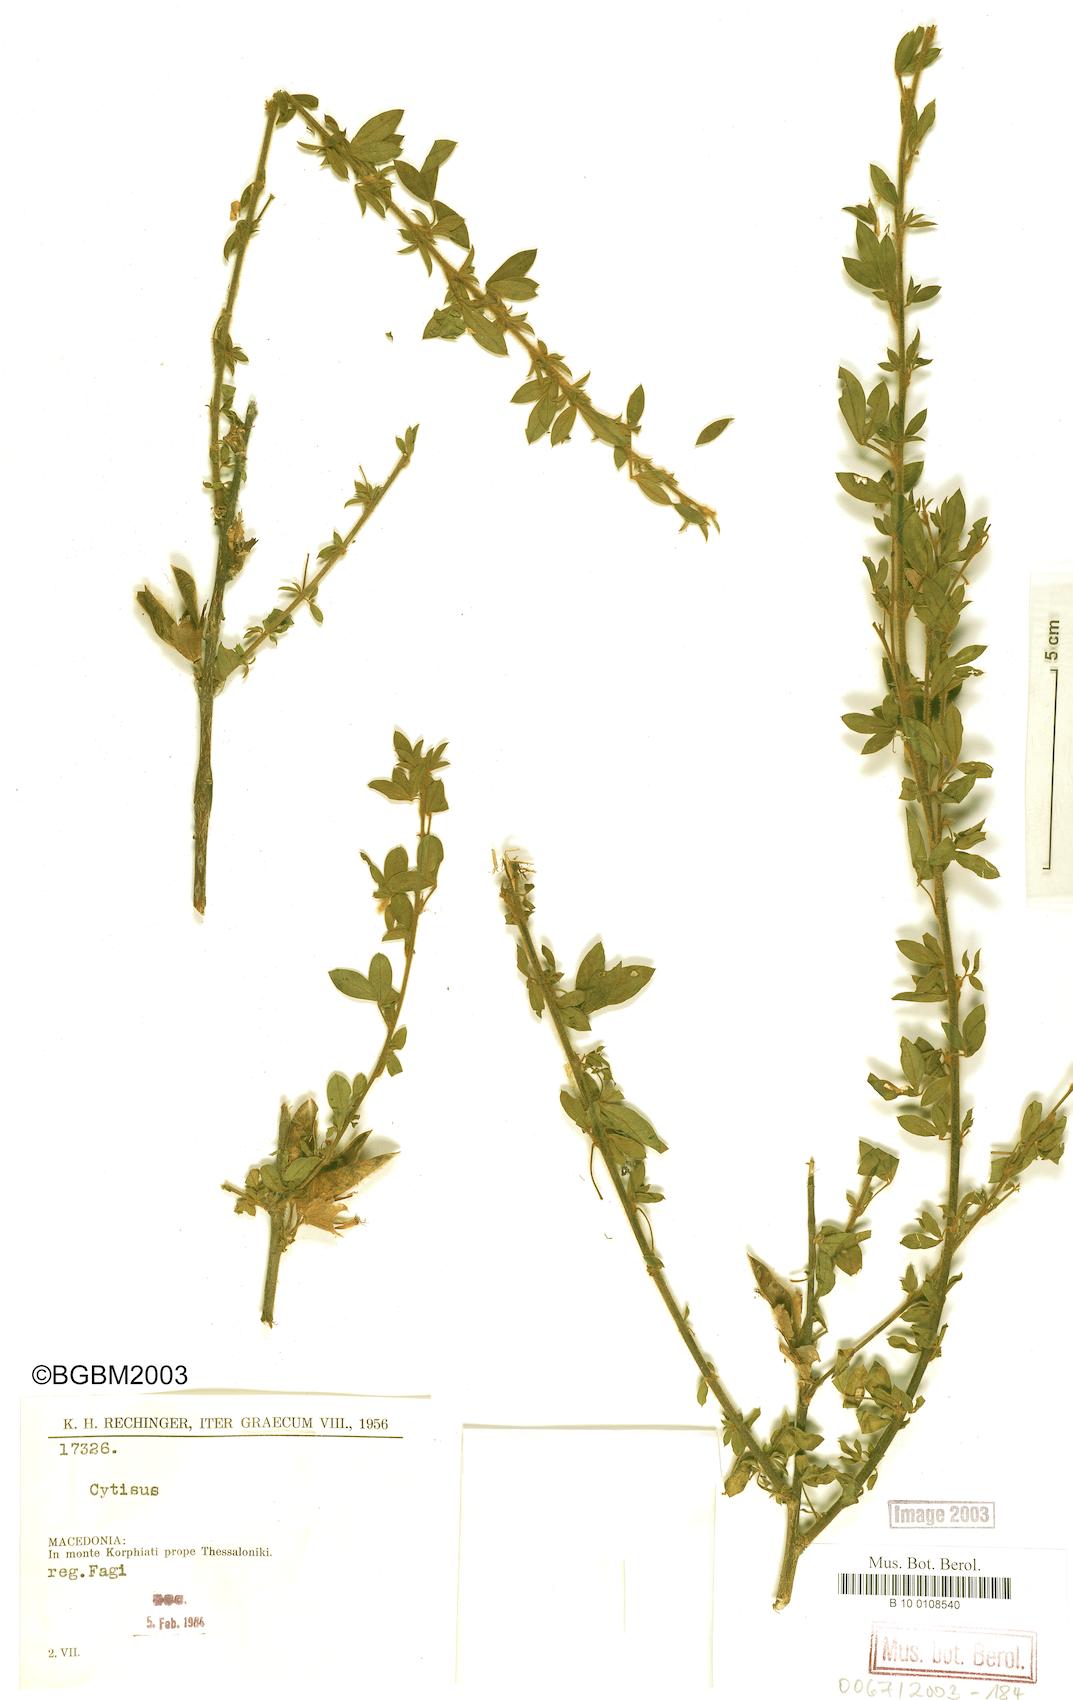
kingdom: Plantae
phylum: Tracheophyta
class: Magnoliopsida
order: Fabales
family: Fabaceae
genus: Cytisus
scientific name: Cytisus
